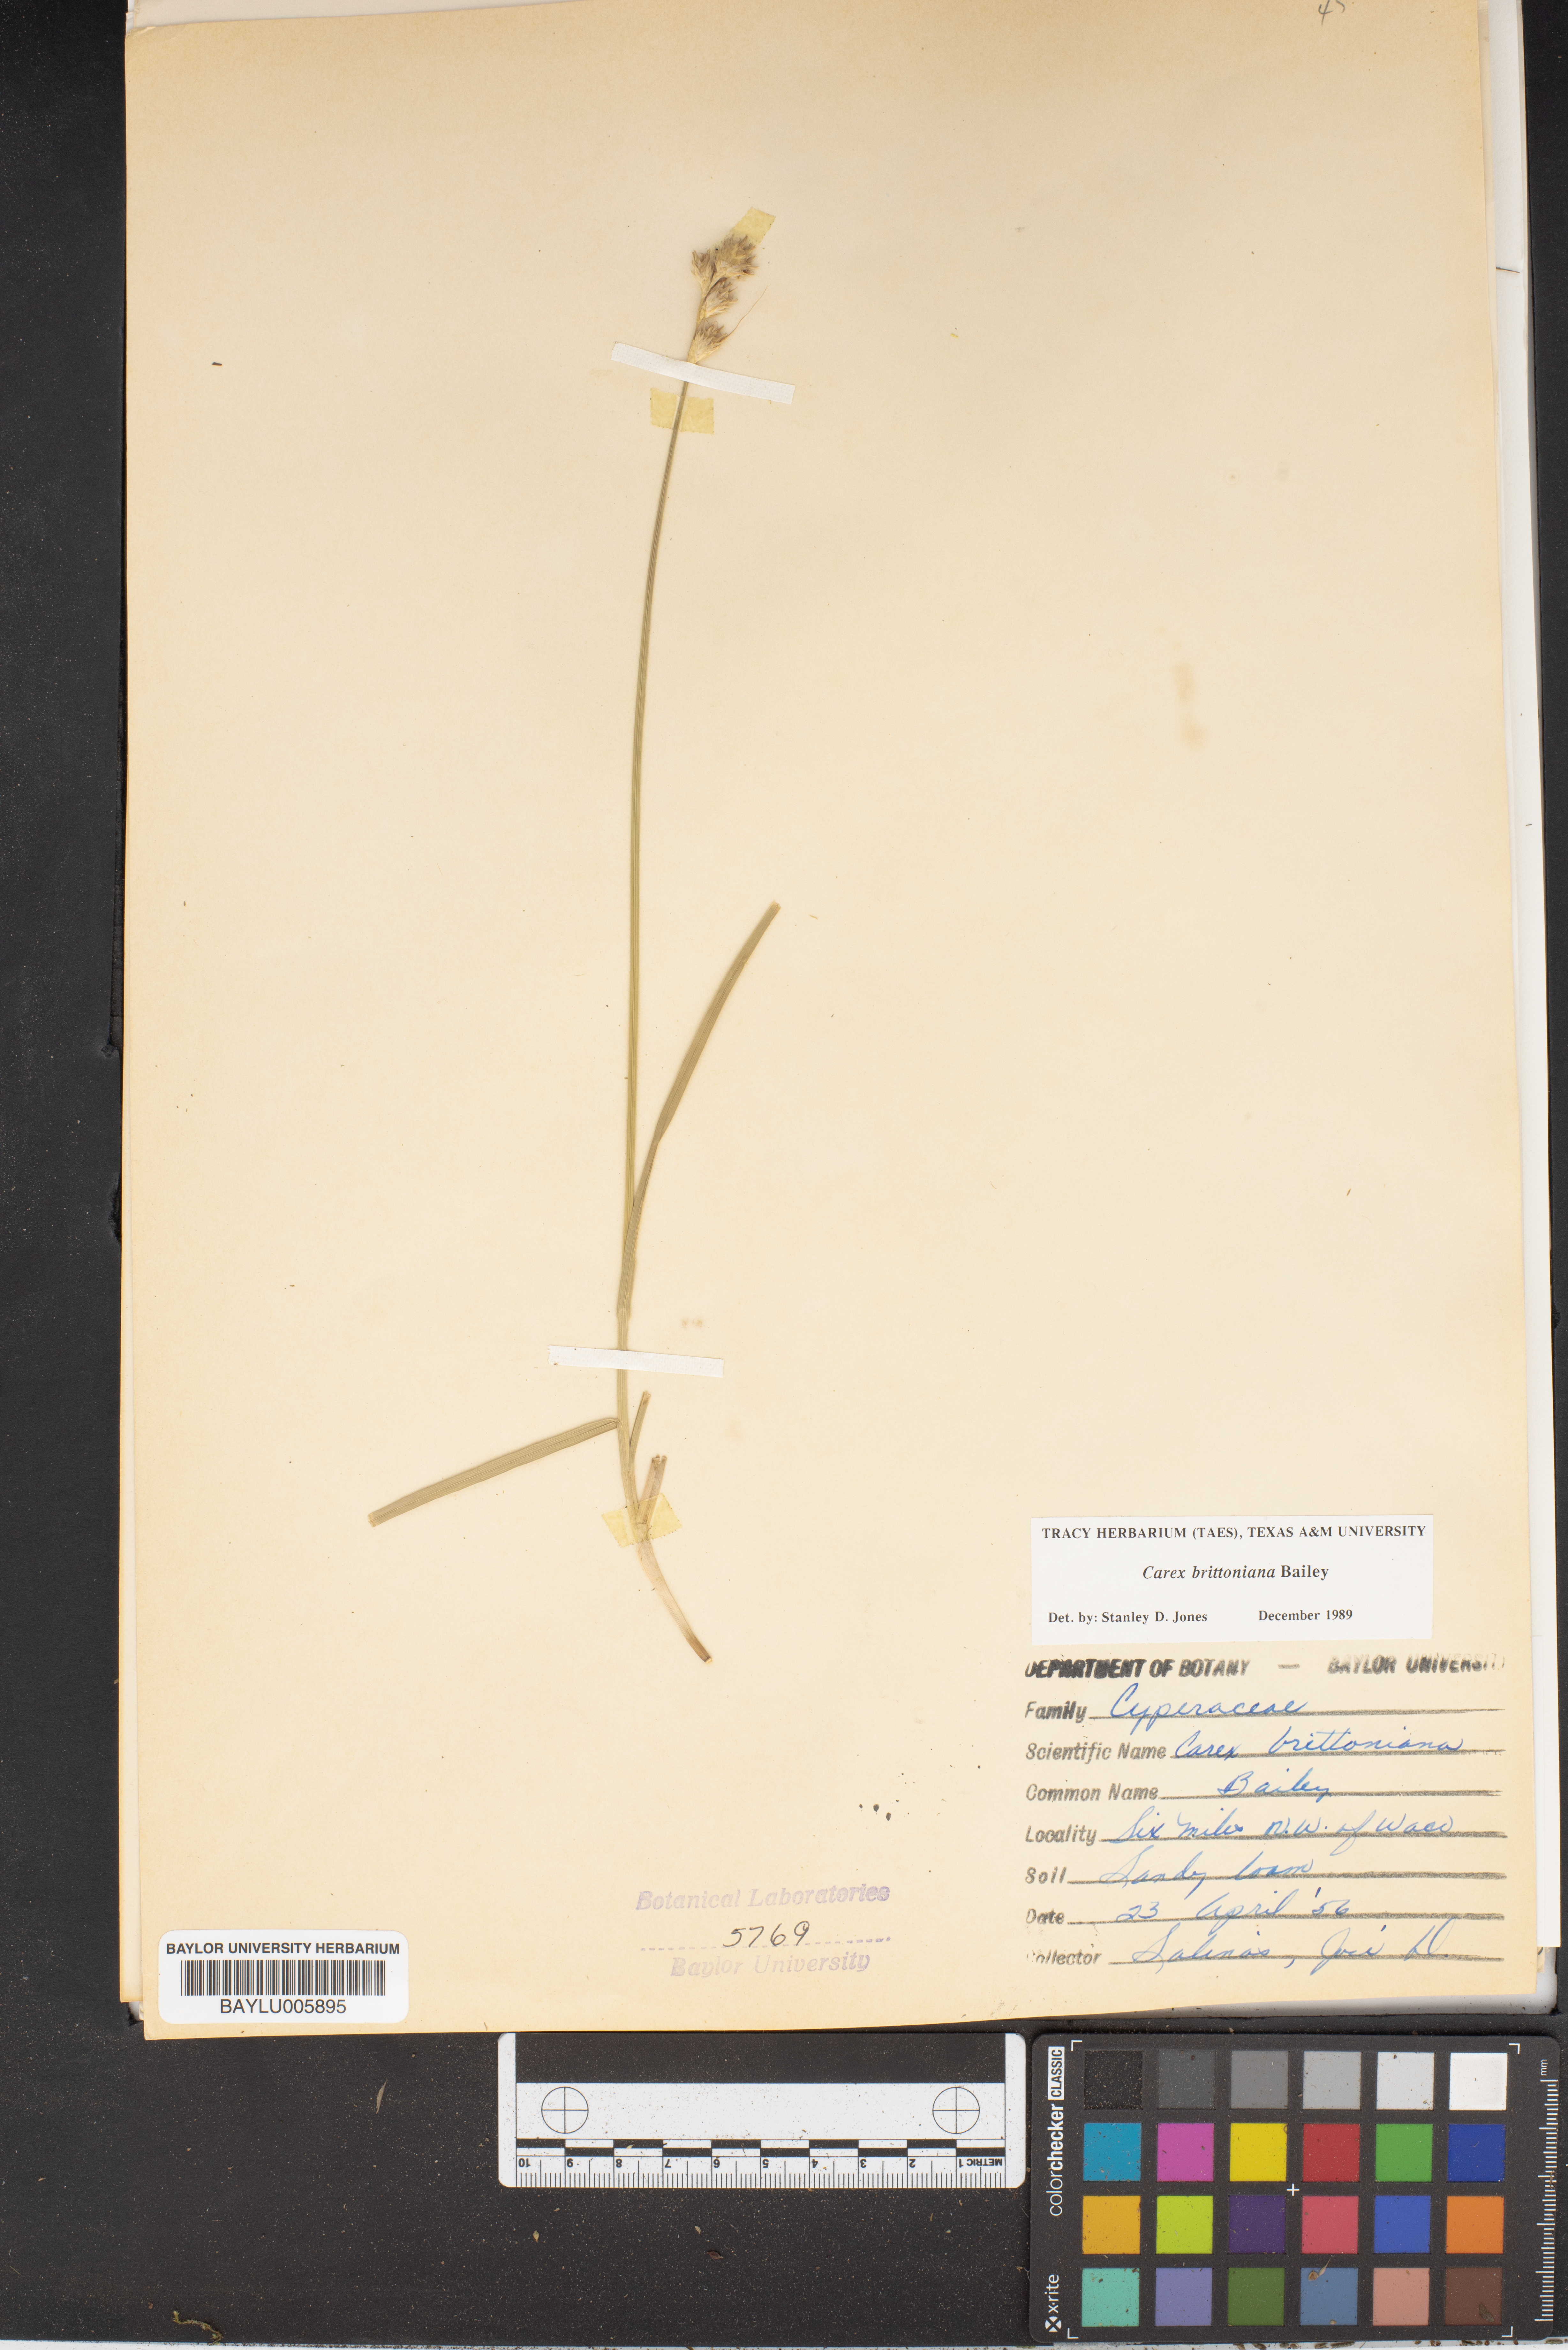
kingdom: Plantae
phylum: Tracheophyta
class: Liliopsida
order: Poales
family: Cyperaceae
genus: Carex
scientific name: Carex tetrastachya
